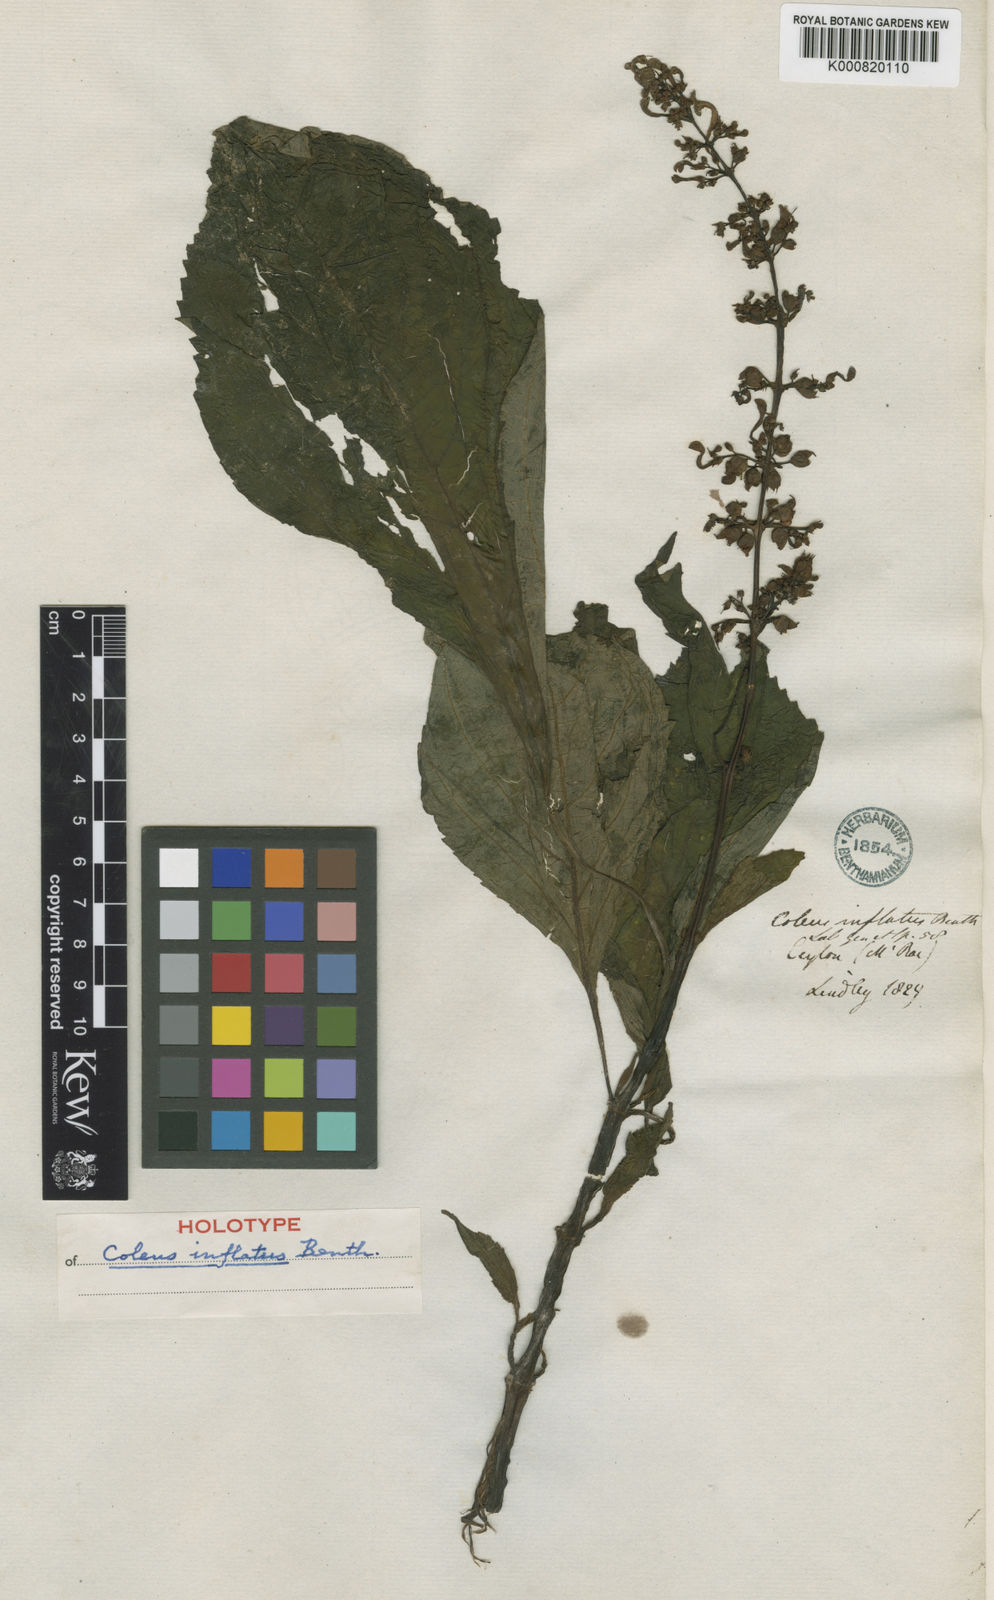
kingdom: Plantae
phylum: Tracheophyta
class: Magnoliopsida
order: Lamiales
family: Lamiaceae
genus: Coleus
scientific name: Coleus inflatus
